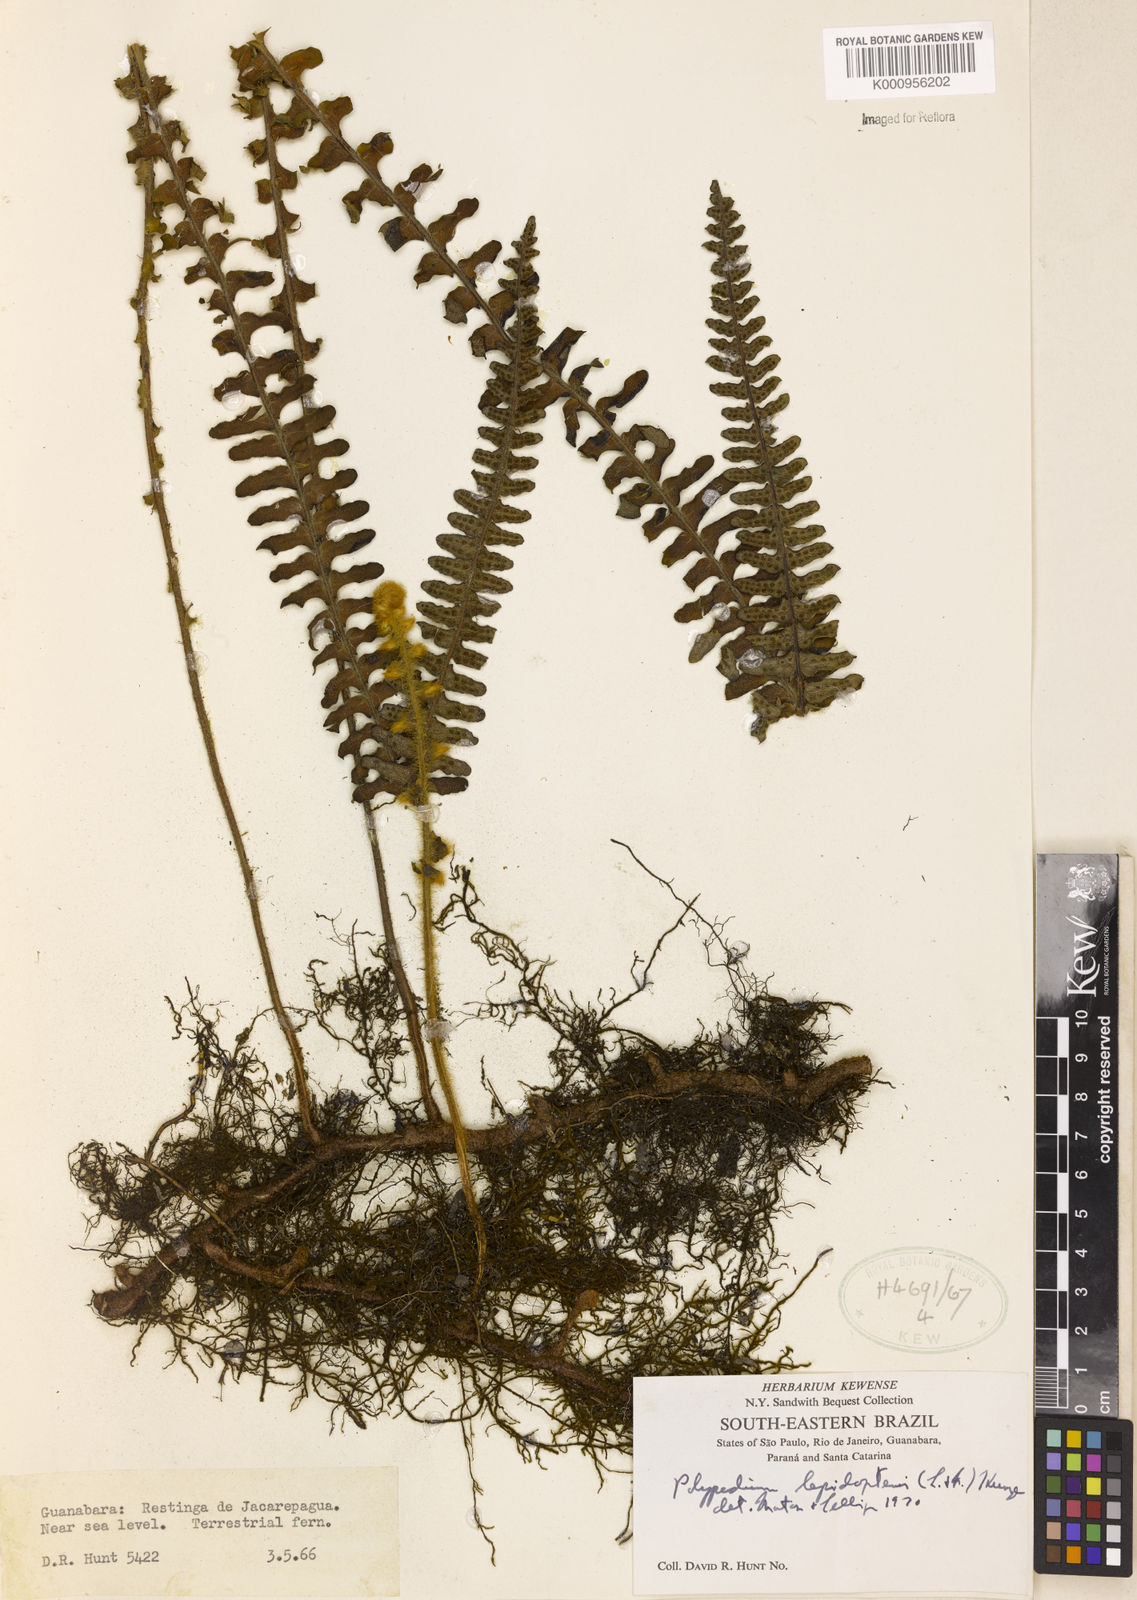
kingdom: Plantae
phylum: Tracheophyta
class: Polypodiopsida
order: Polypodiales
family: Polypodiaceae
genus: Pleopeltis
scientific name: Pleopeltis lepidopteris
